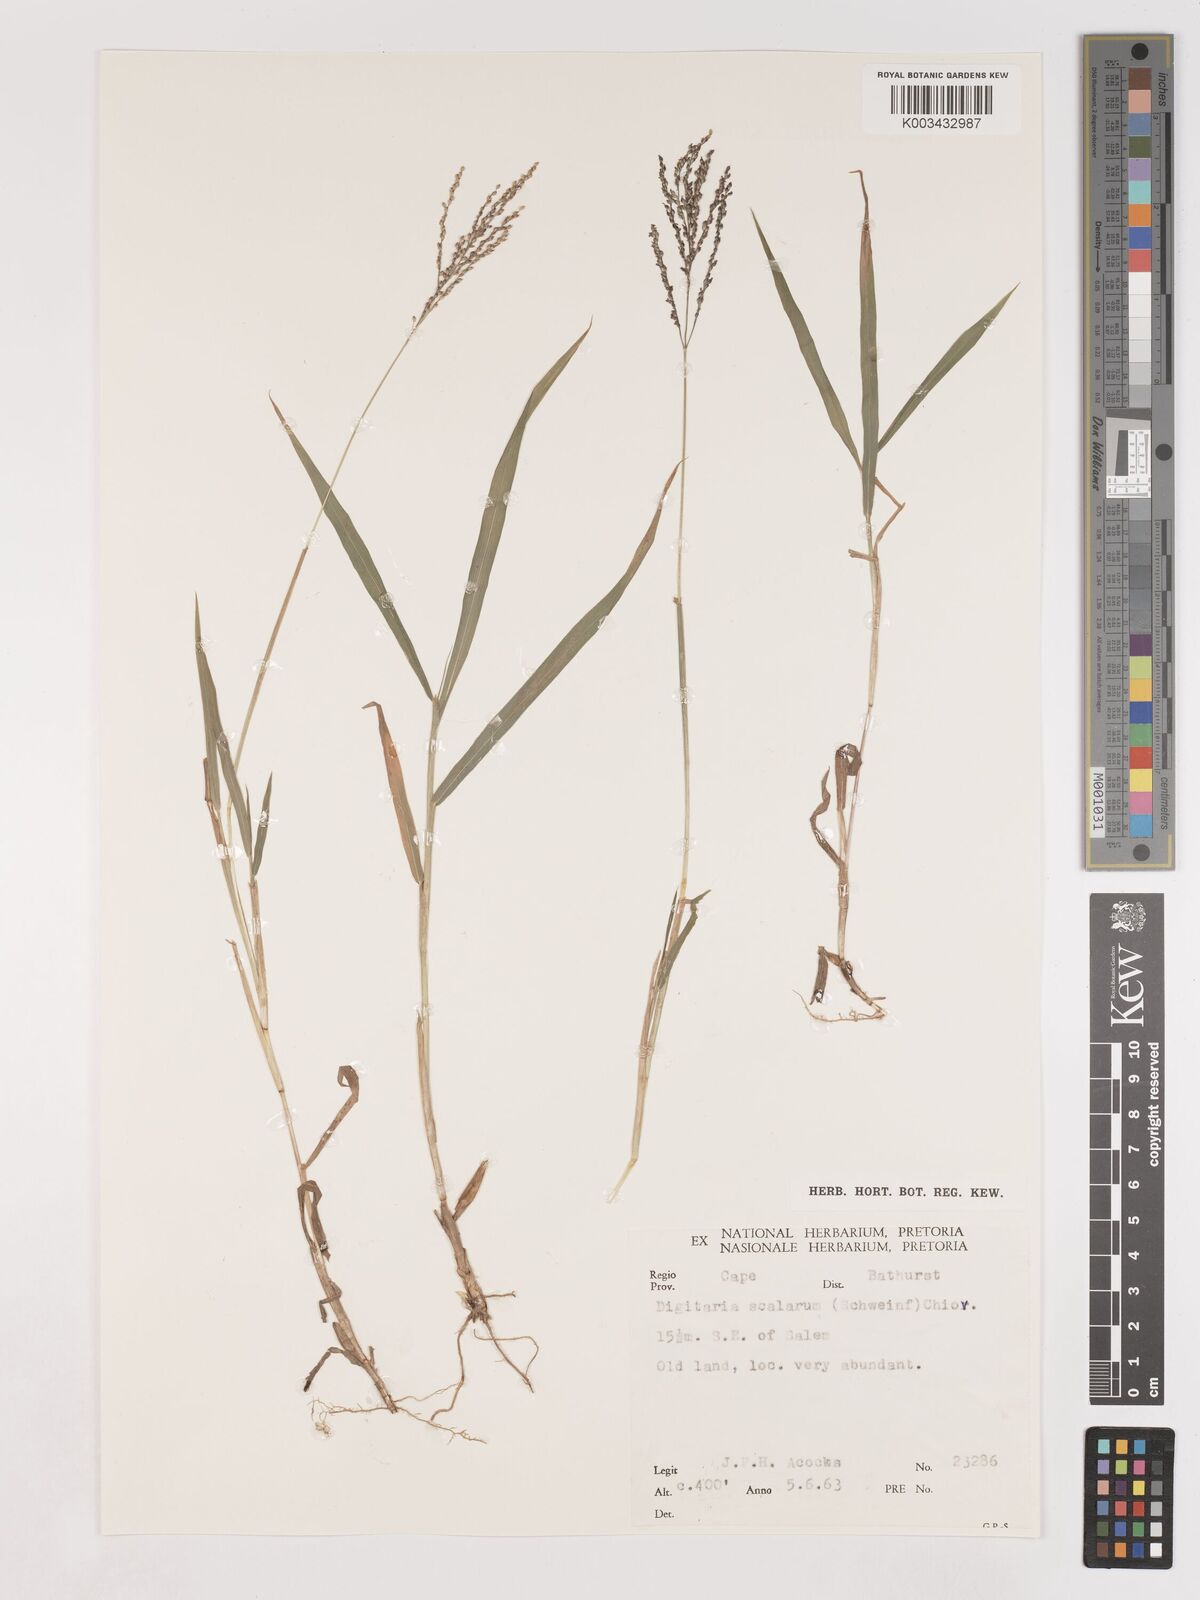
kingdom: Plantae
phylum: Tracheophyta
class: Liliopsida
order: Poales
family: Poaceae
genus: Digitaria
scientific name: Digitaria abyssinica
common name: African couchgrass
